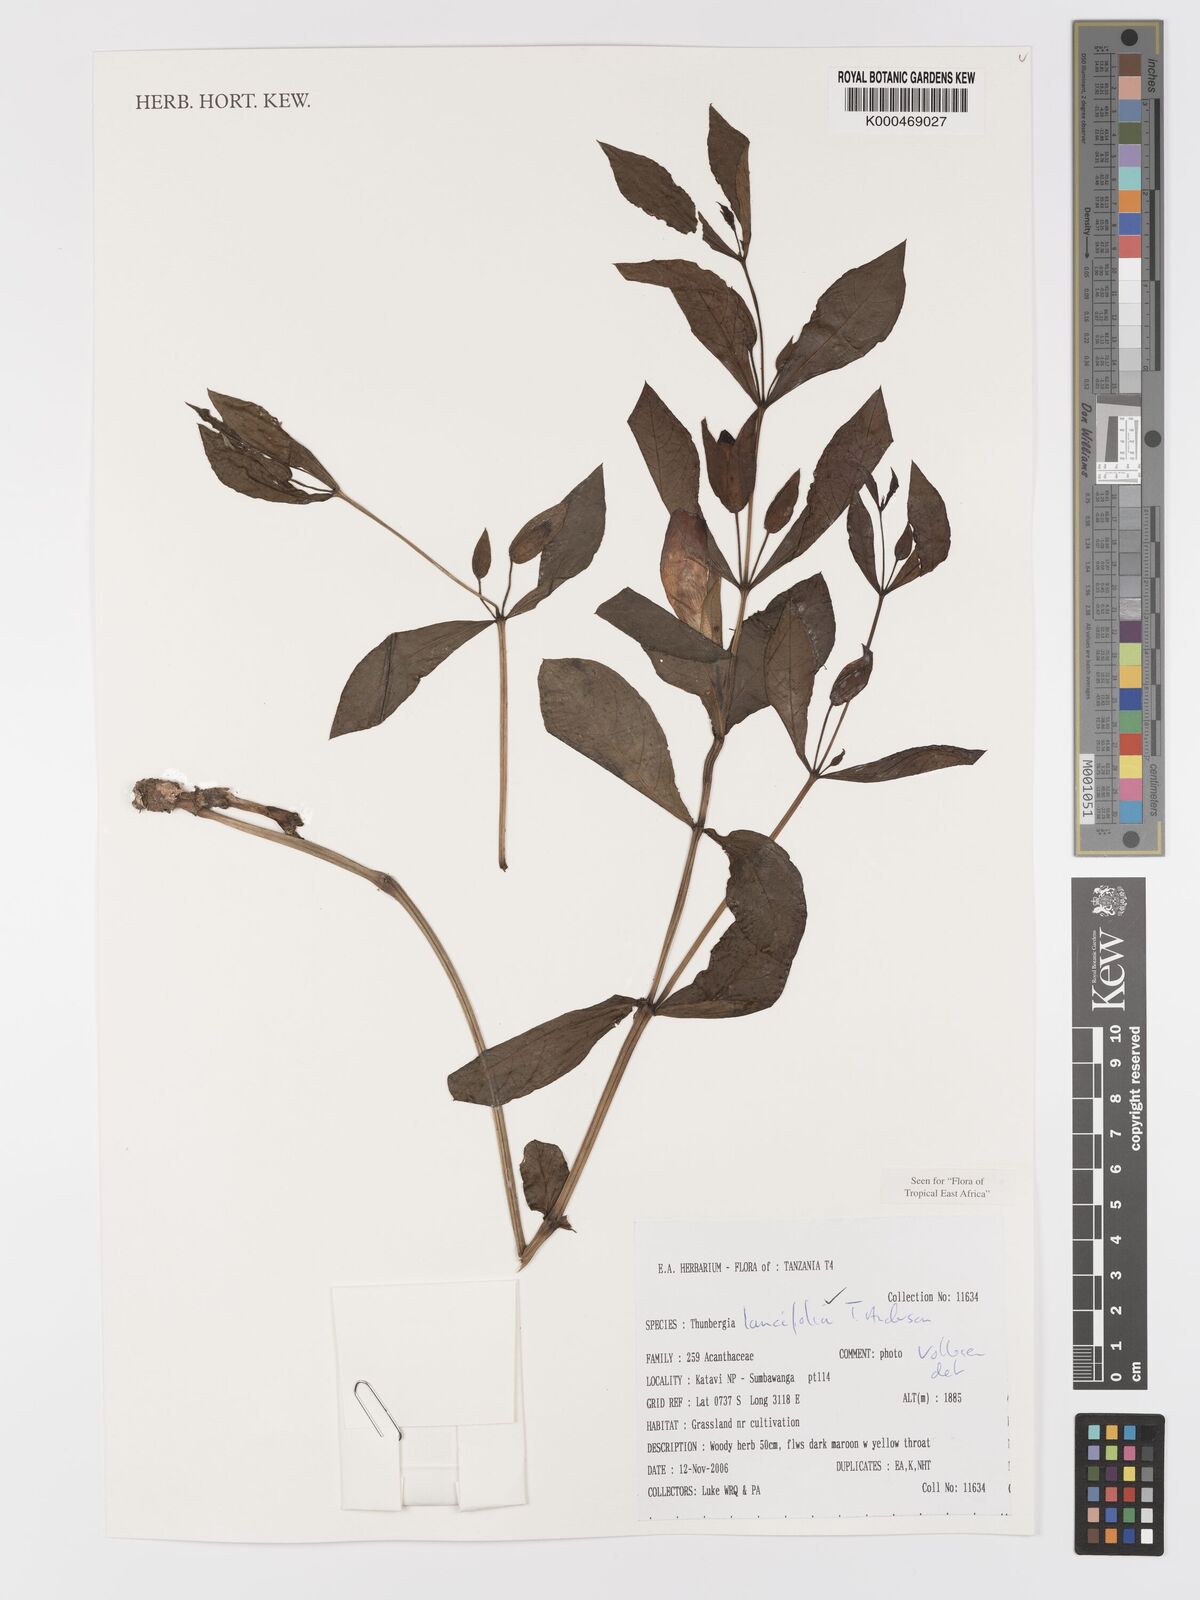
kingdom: Plantae
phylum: Tracheophyta
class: Magnoliopsida
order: Lamiales
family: Acanthaceae
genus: Thunbergia
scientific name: Thunbergia lancifolia
